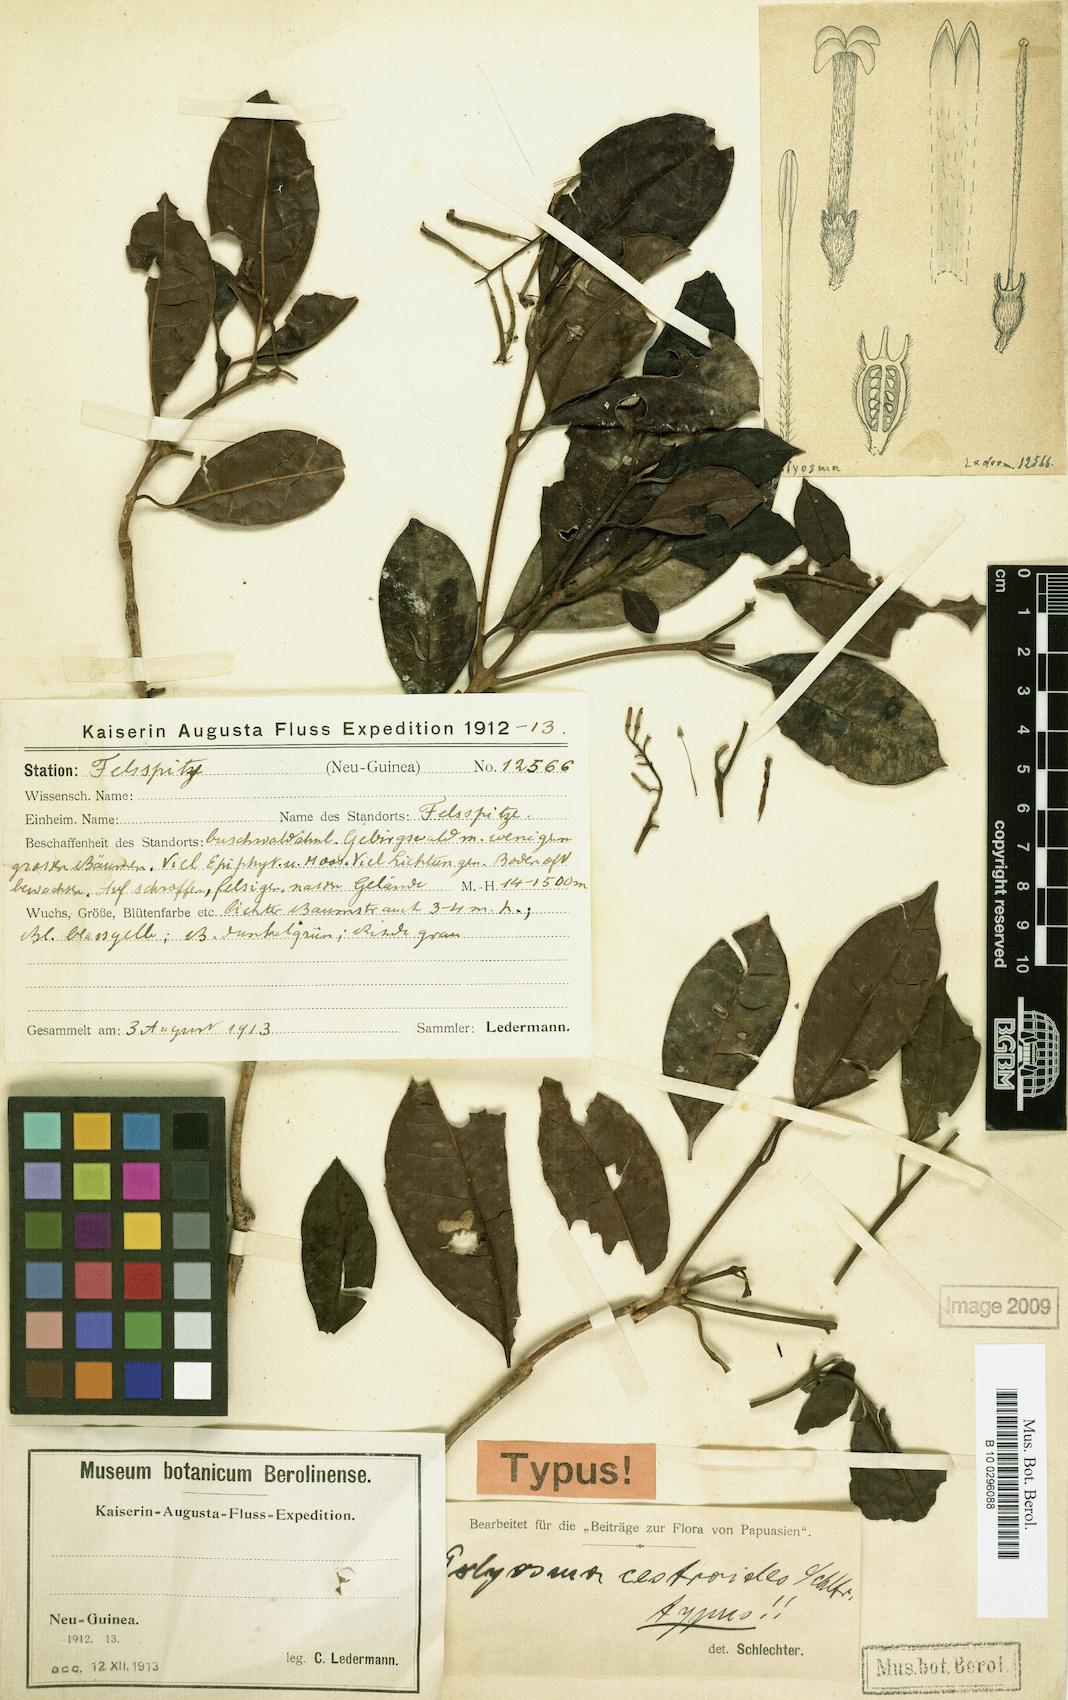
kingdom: Plantae
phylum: Tracheophyta
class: Magnoliopsida
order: Escalloniales
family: Escalloniaceae
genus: Polyosma
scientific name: Polyosma cestroides
